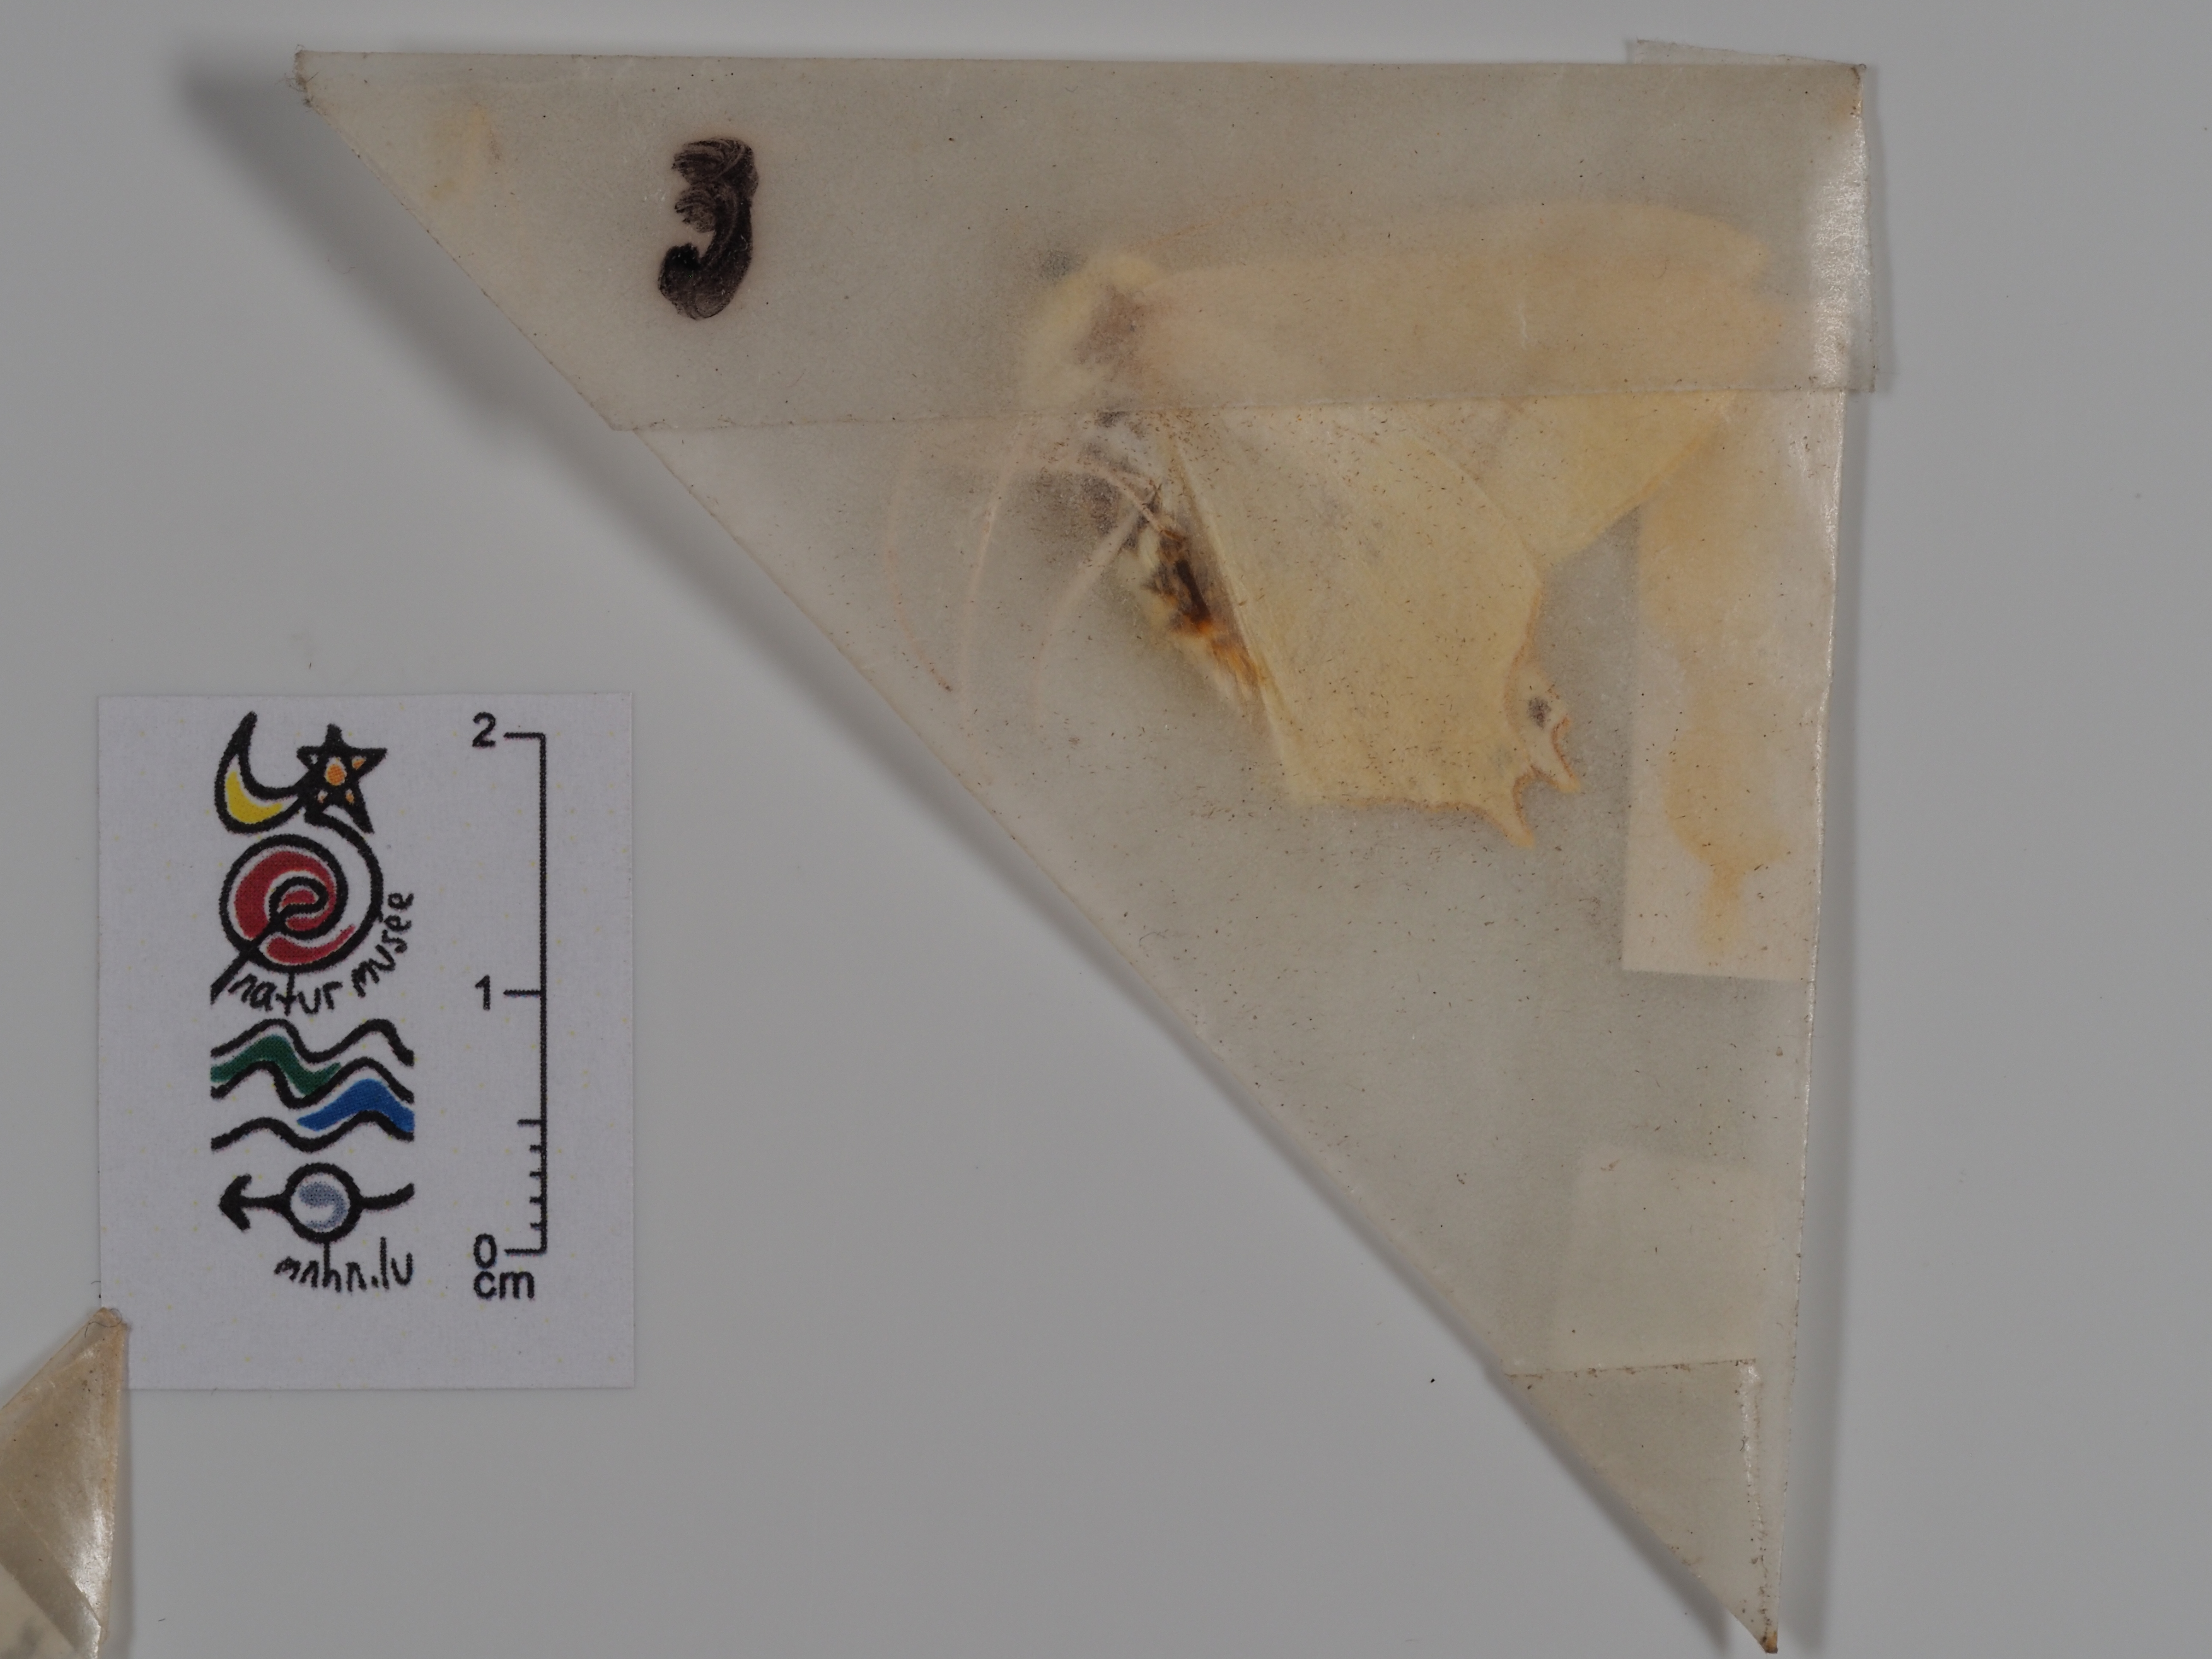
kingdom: Animalia
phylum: Arthropoda
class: Insecta
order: Lepidoptera
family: Geometridae
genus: Ourapteryx
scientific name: Ourapteryx sambucaria
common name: Swallow-tailed moth
